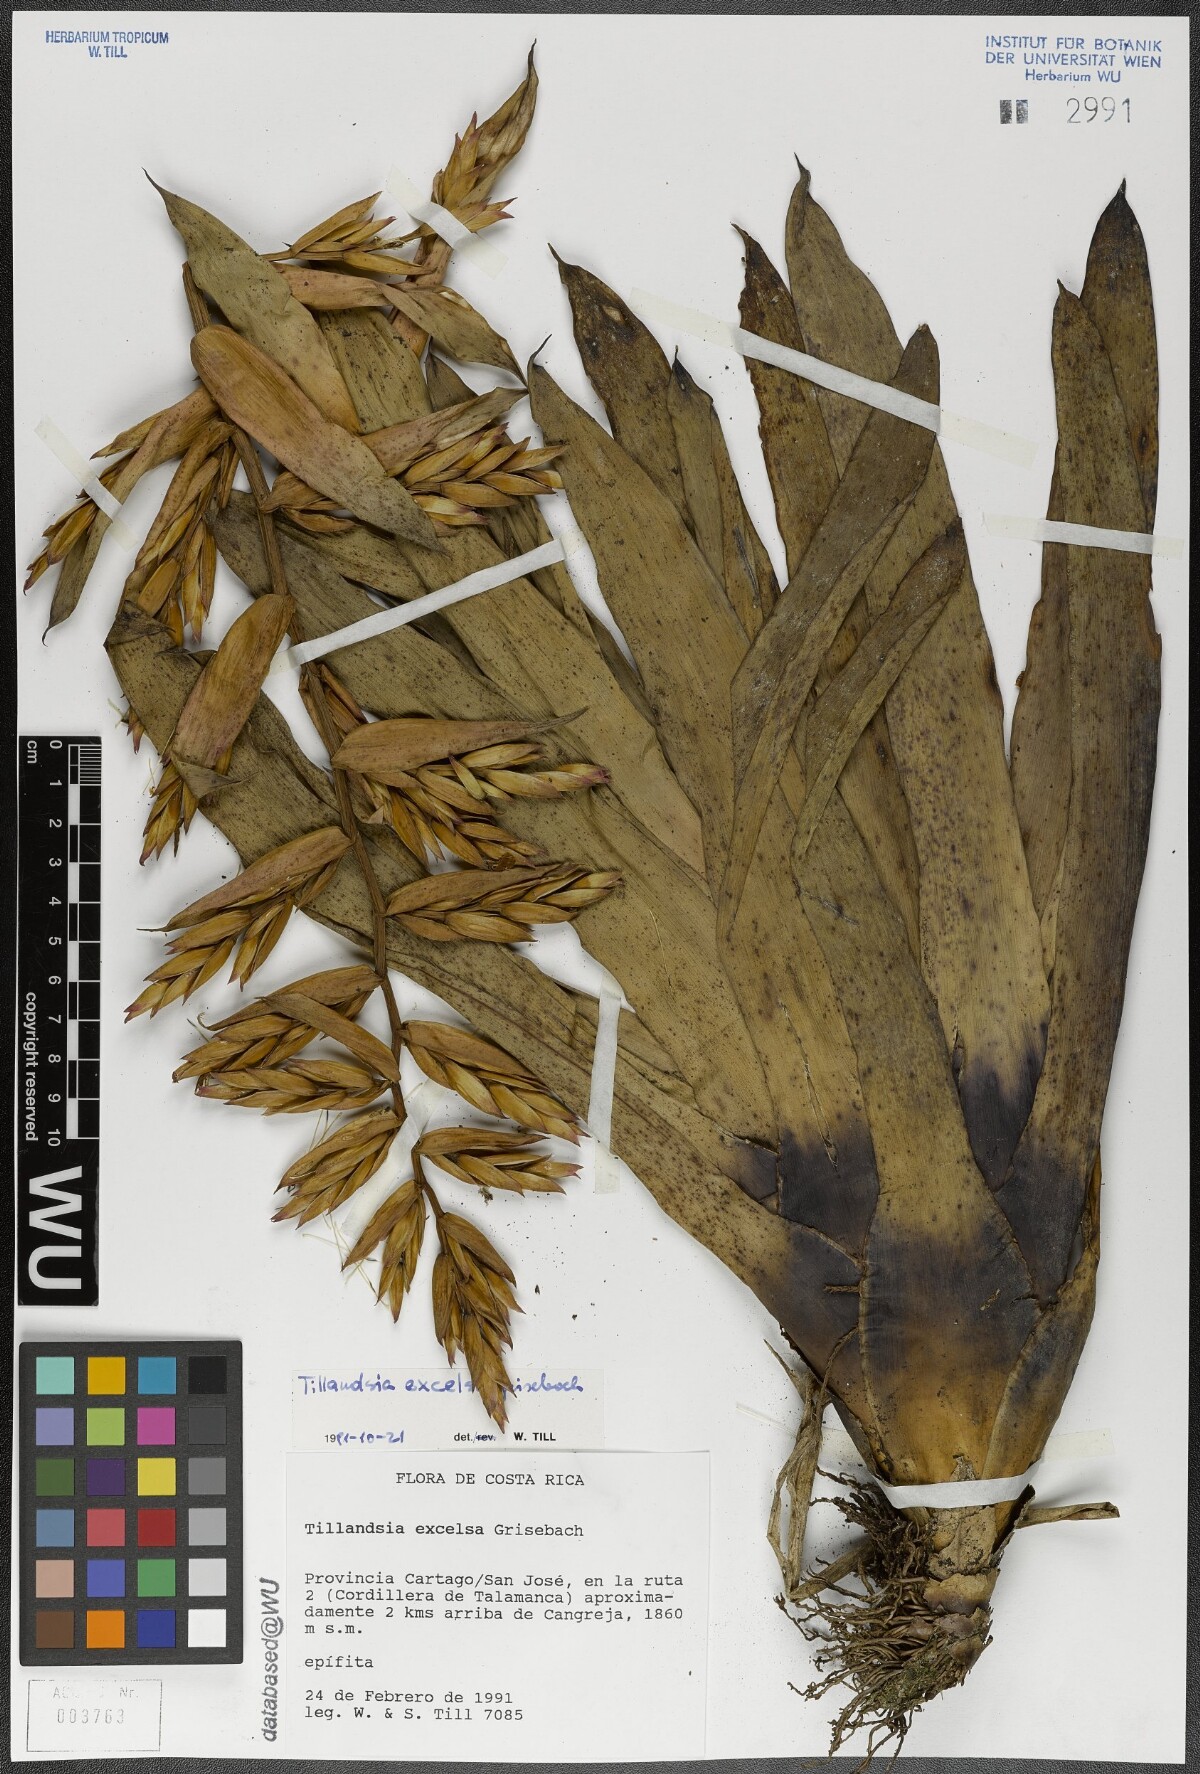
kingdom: Plantae
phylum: Tracheophyta
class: Liliopsida
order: Poales
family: Bromeliaceae
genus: Tillandsia
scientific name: Tillandsia excelsa
